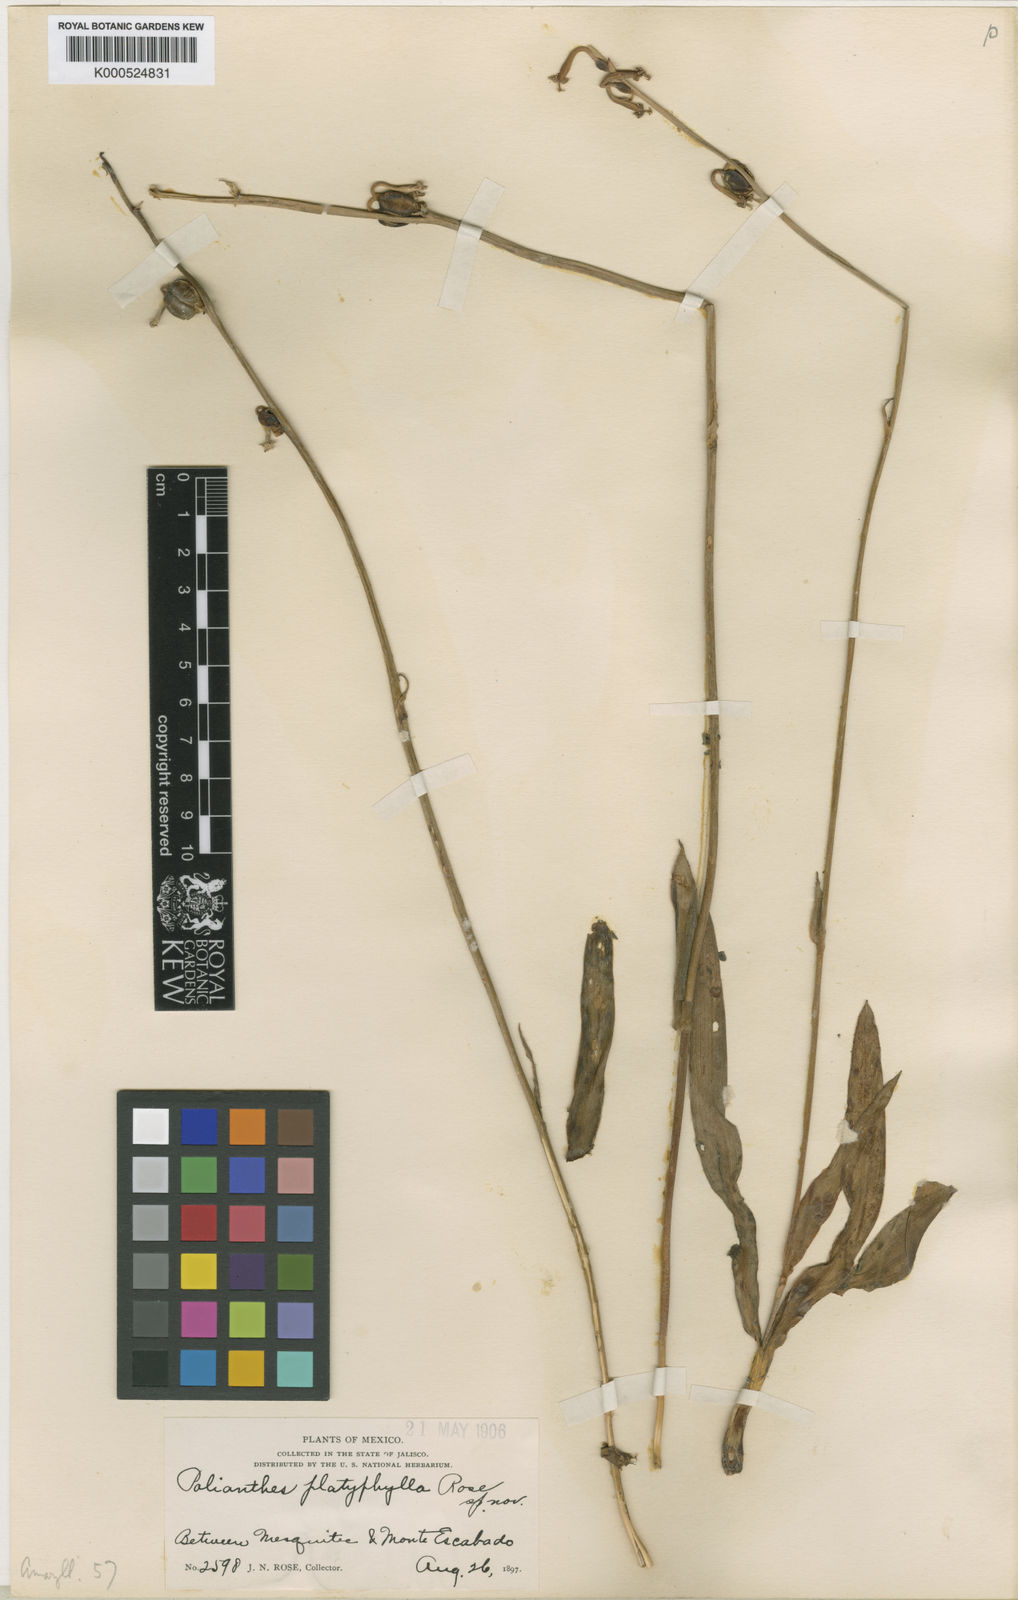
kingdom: Plantae
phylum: Tracheophyta
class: Liliopsida
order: Asparagales
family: Asparagaceae
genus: Agave
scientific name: Agave platyphylla
